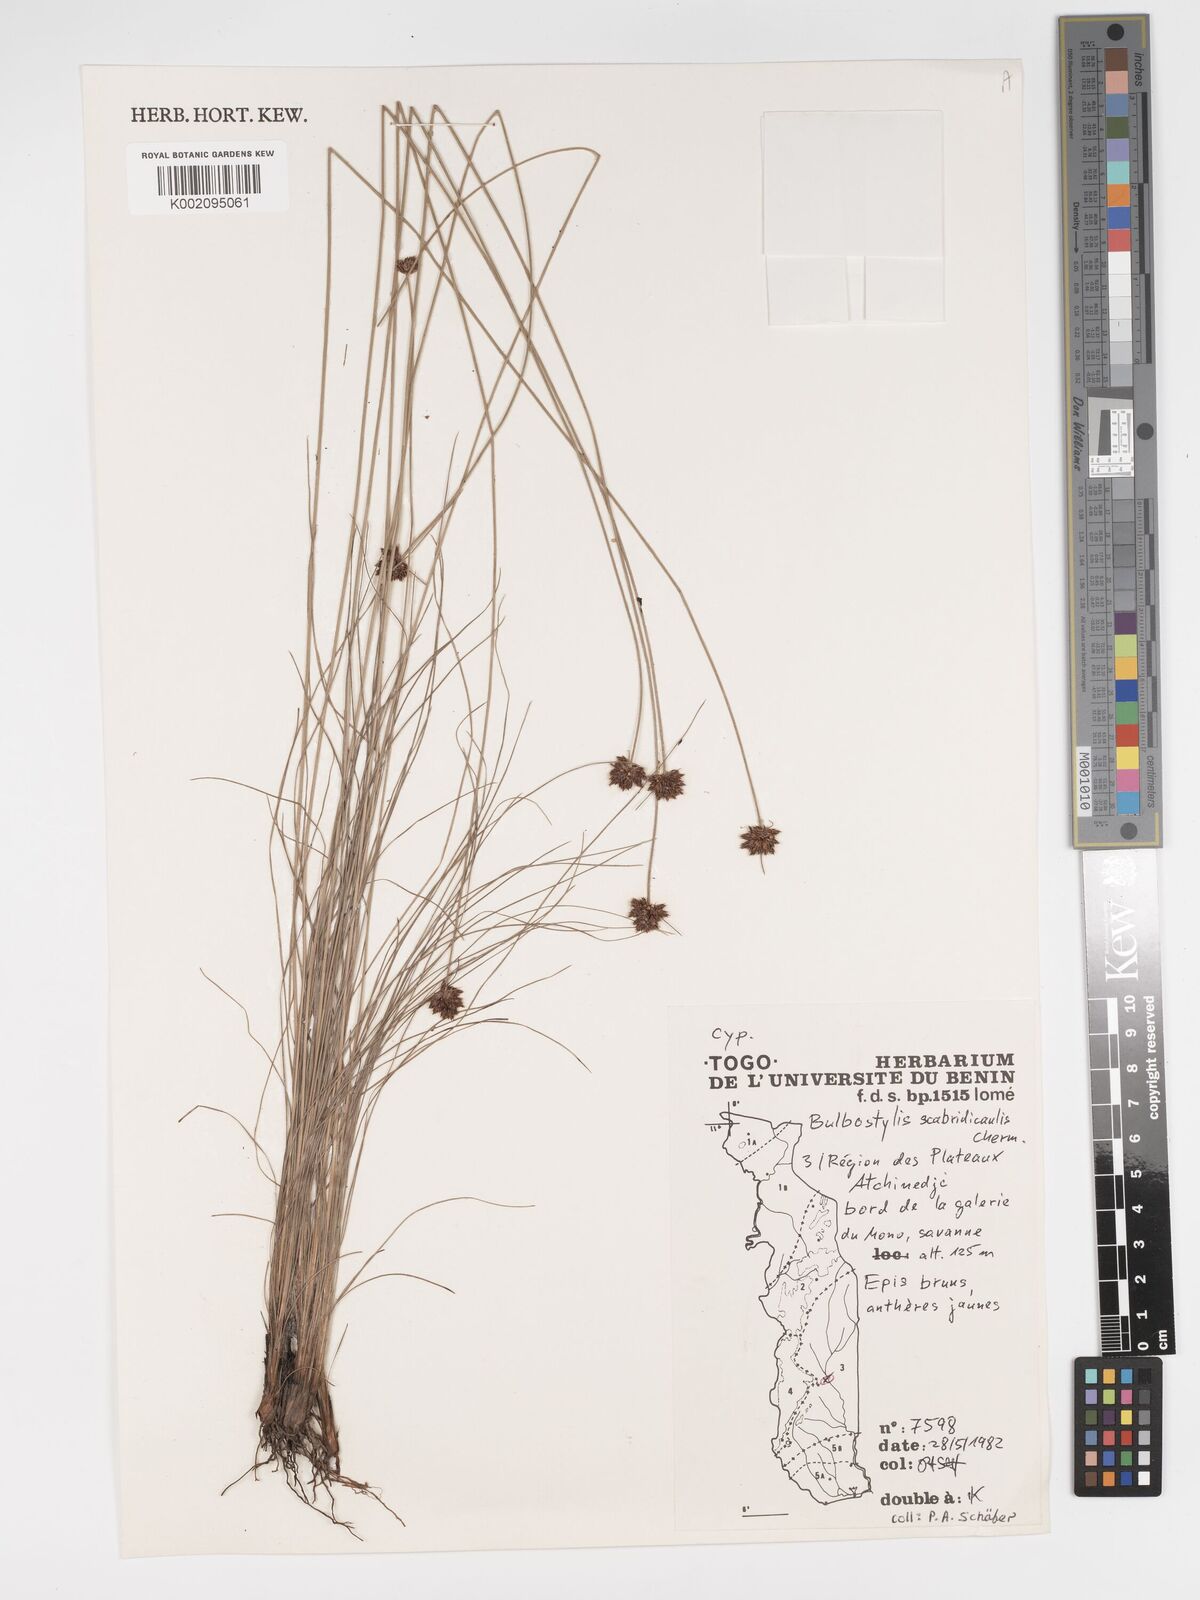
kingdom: Plantae
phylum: Tracheophyta
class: Liliopsida
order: Poales
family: Cyperaceae
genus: Bulbostylis
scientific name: Bulbostylis scabricaulis
